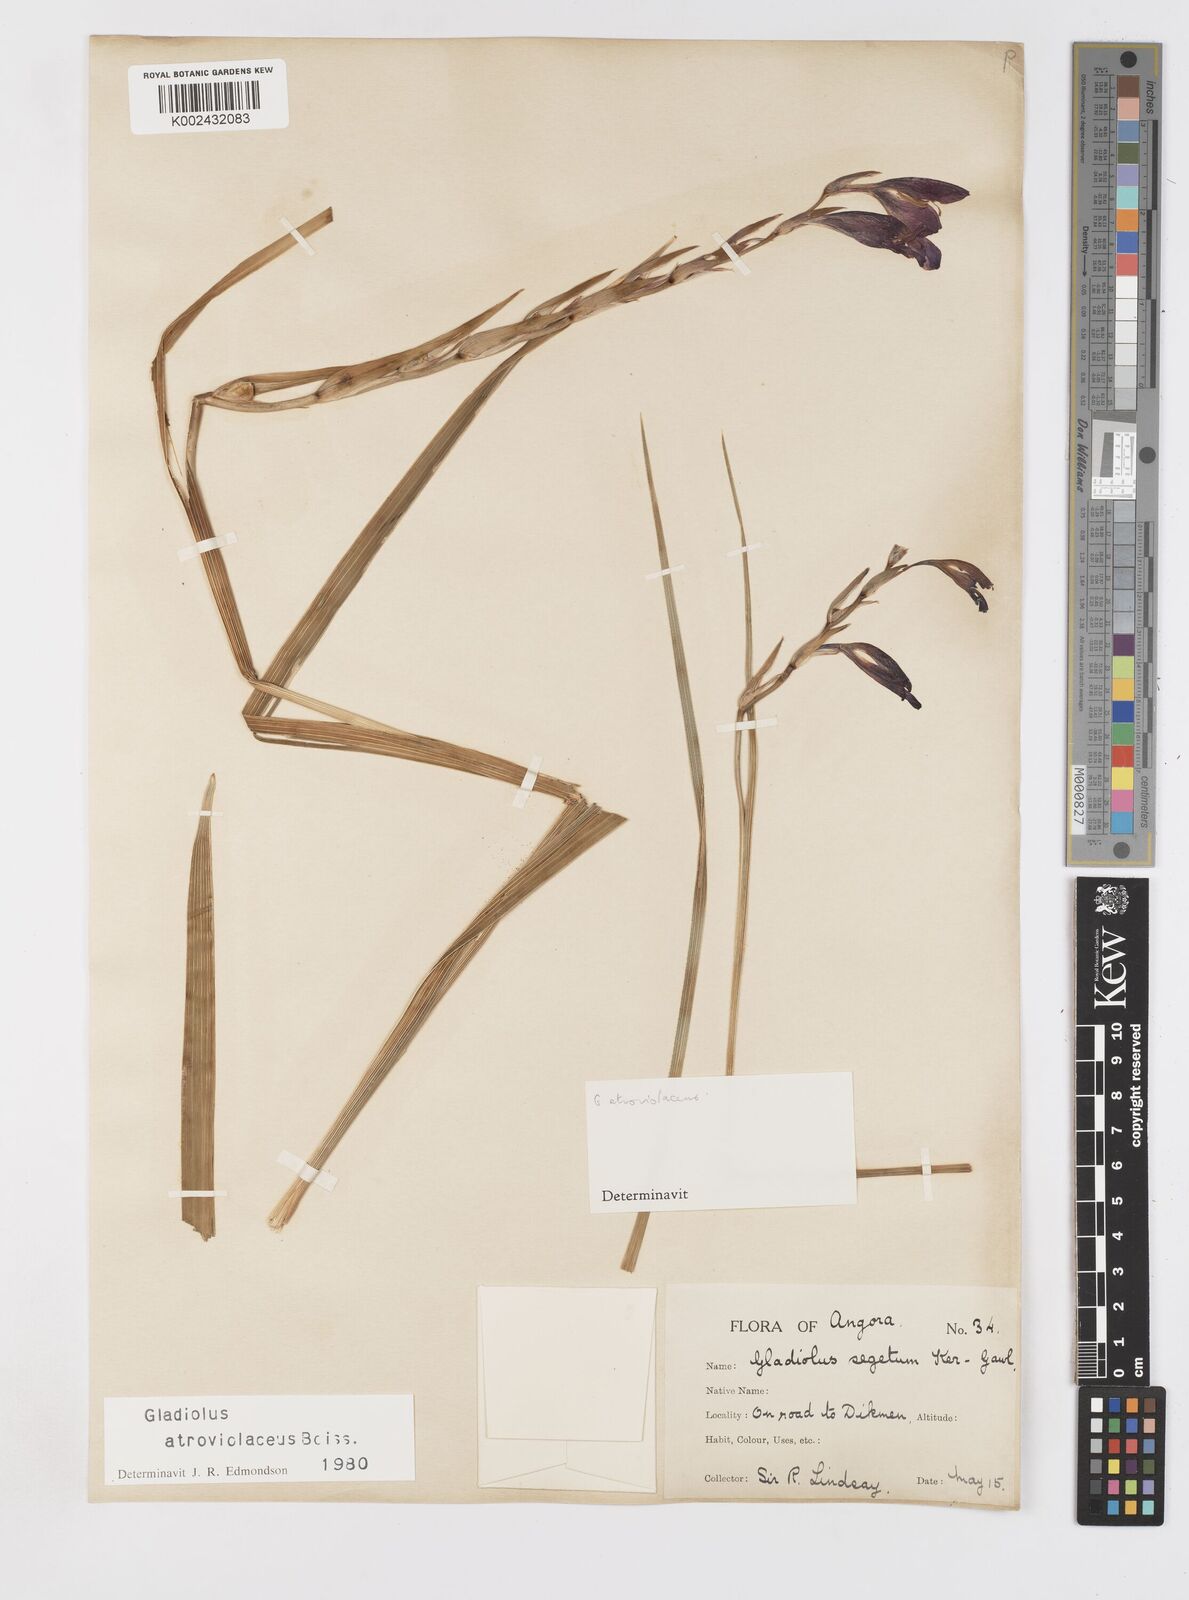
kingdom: Plantae
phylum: Tracheophyta
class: Liliopsida
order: Asparagales
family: Iridaceae
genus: Gladiolus
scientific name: Gladiolus atroviolaceus
